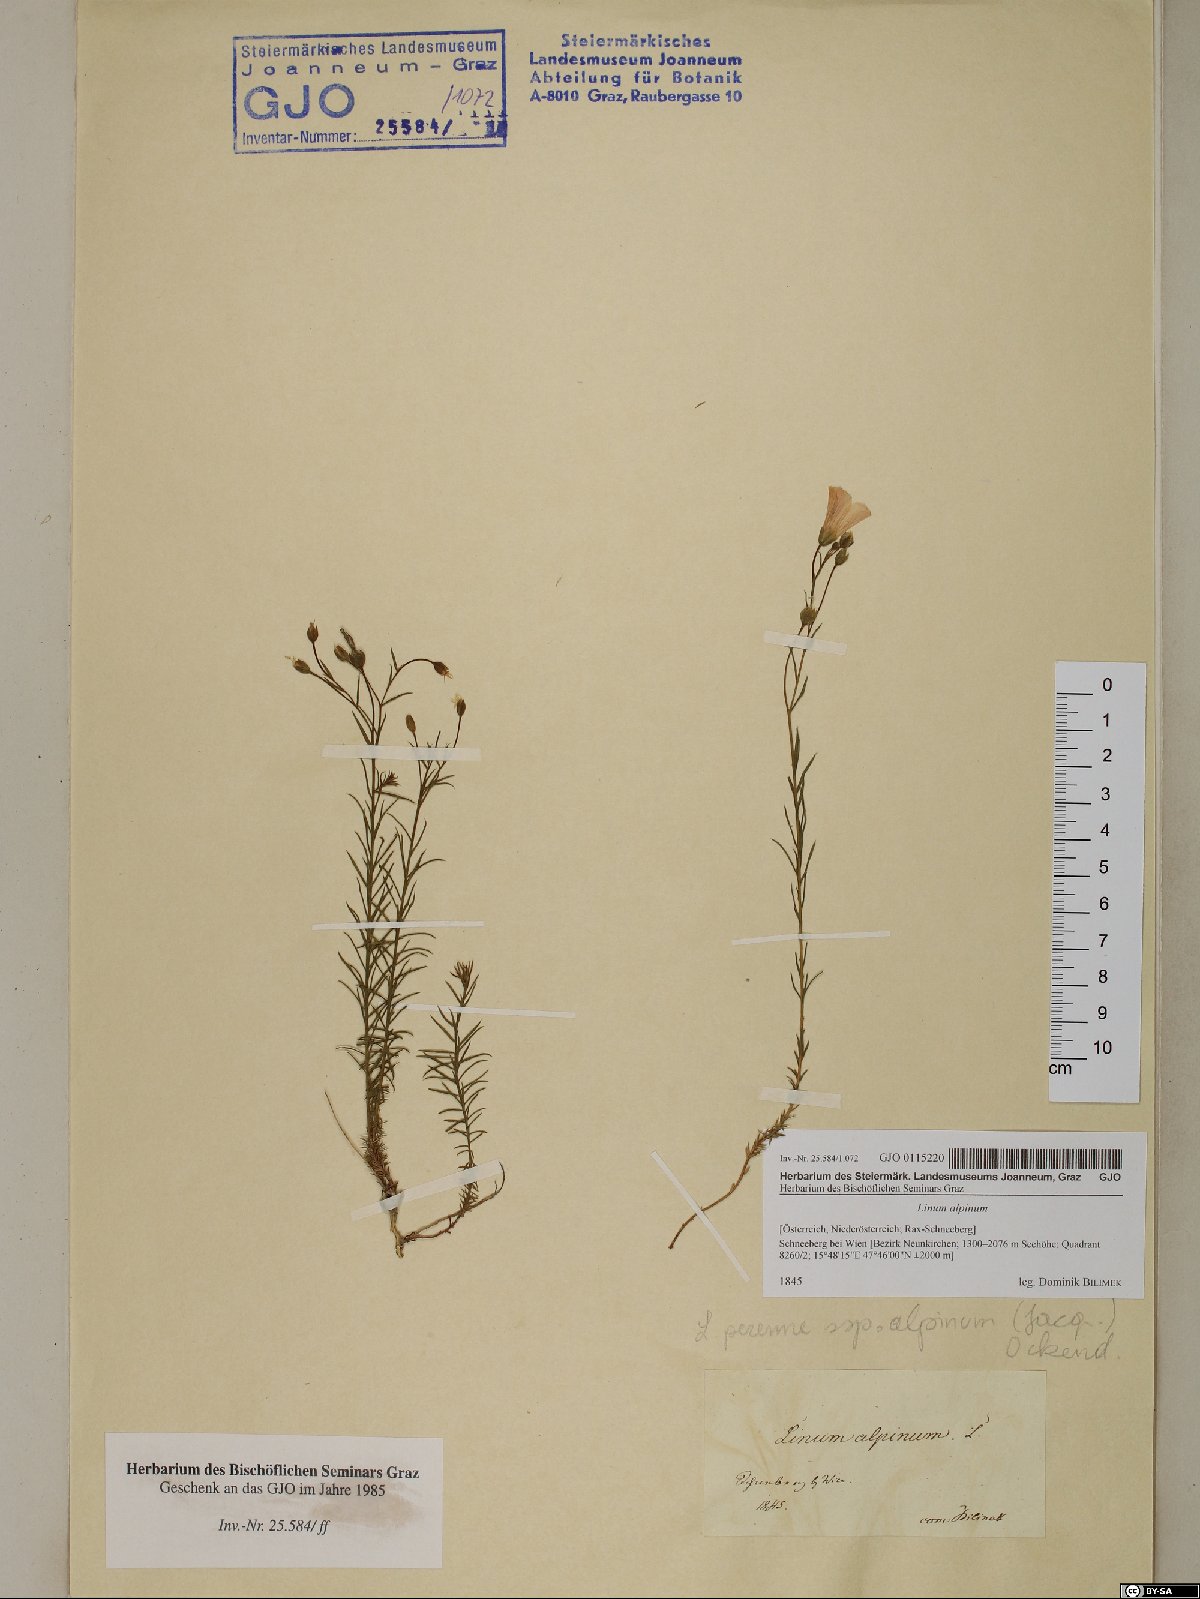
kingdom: Plantae
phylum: Tracheophyta
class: Magnoliopsida
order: Malpighiales
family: Linaceae
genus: Linum
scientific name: Linum alpinum
